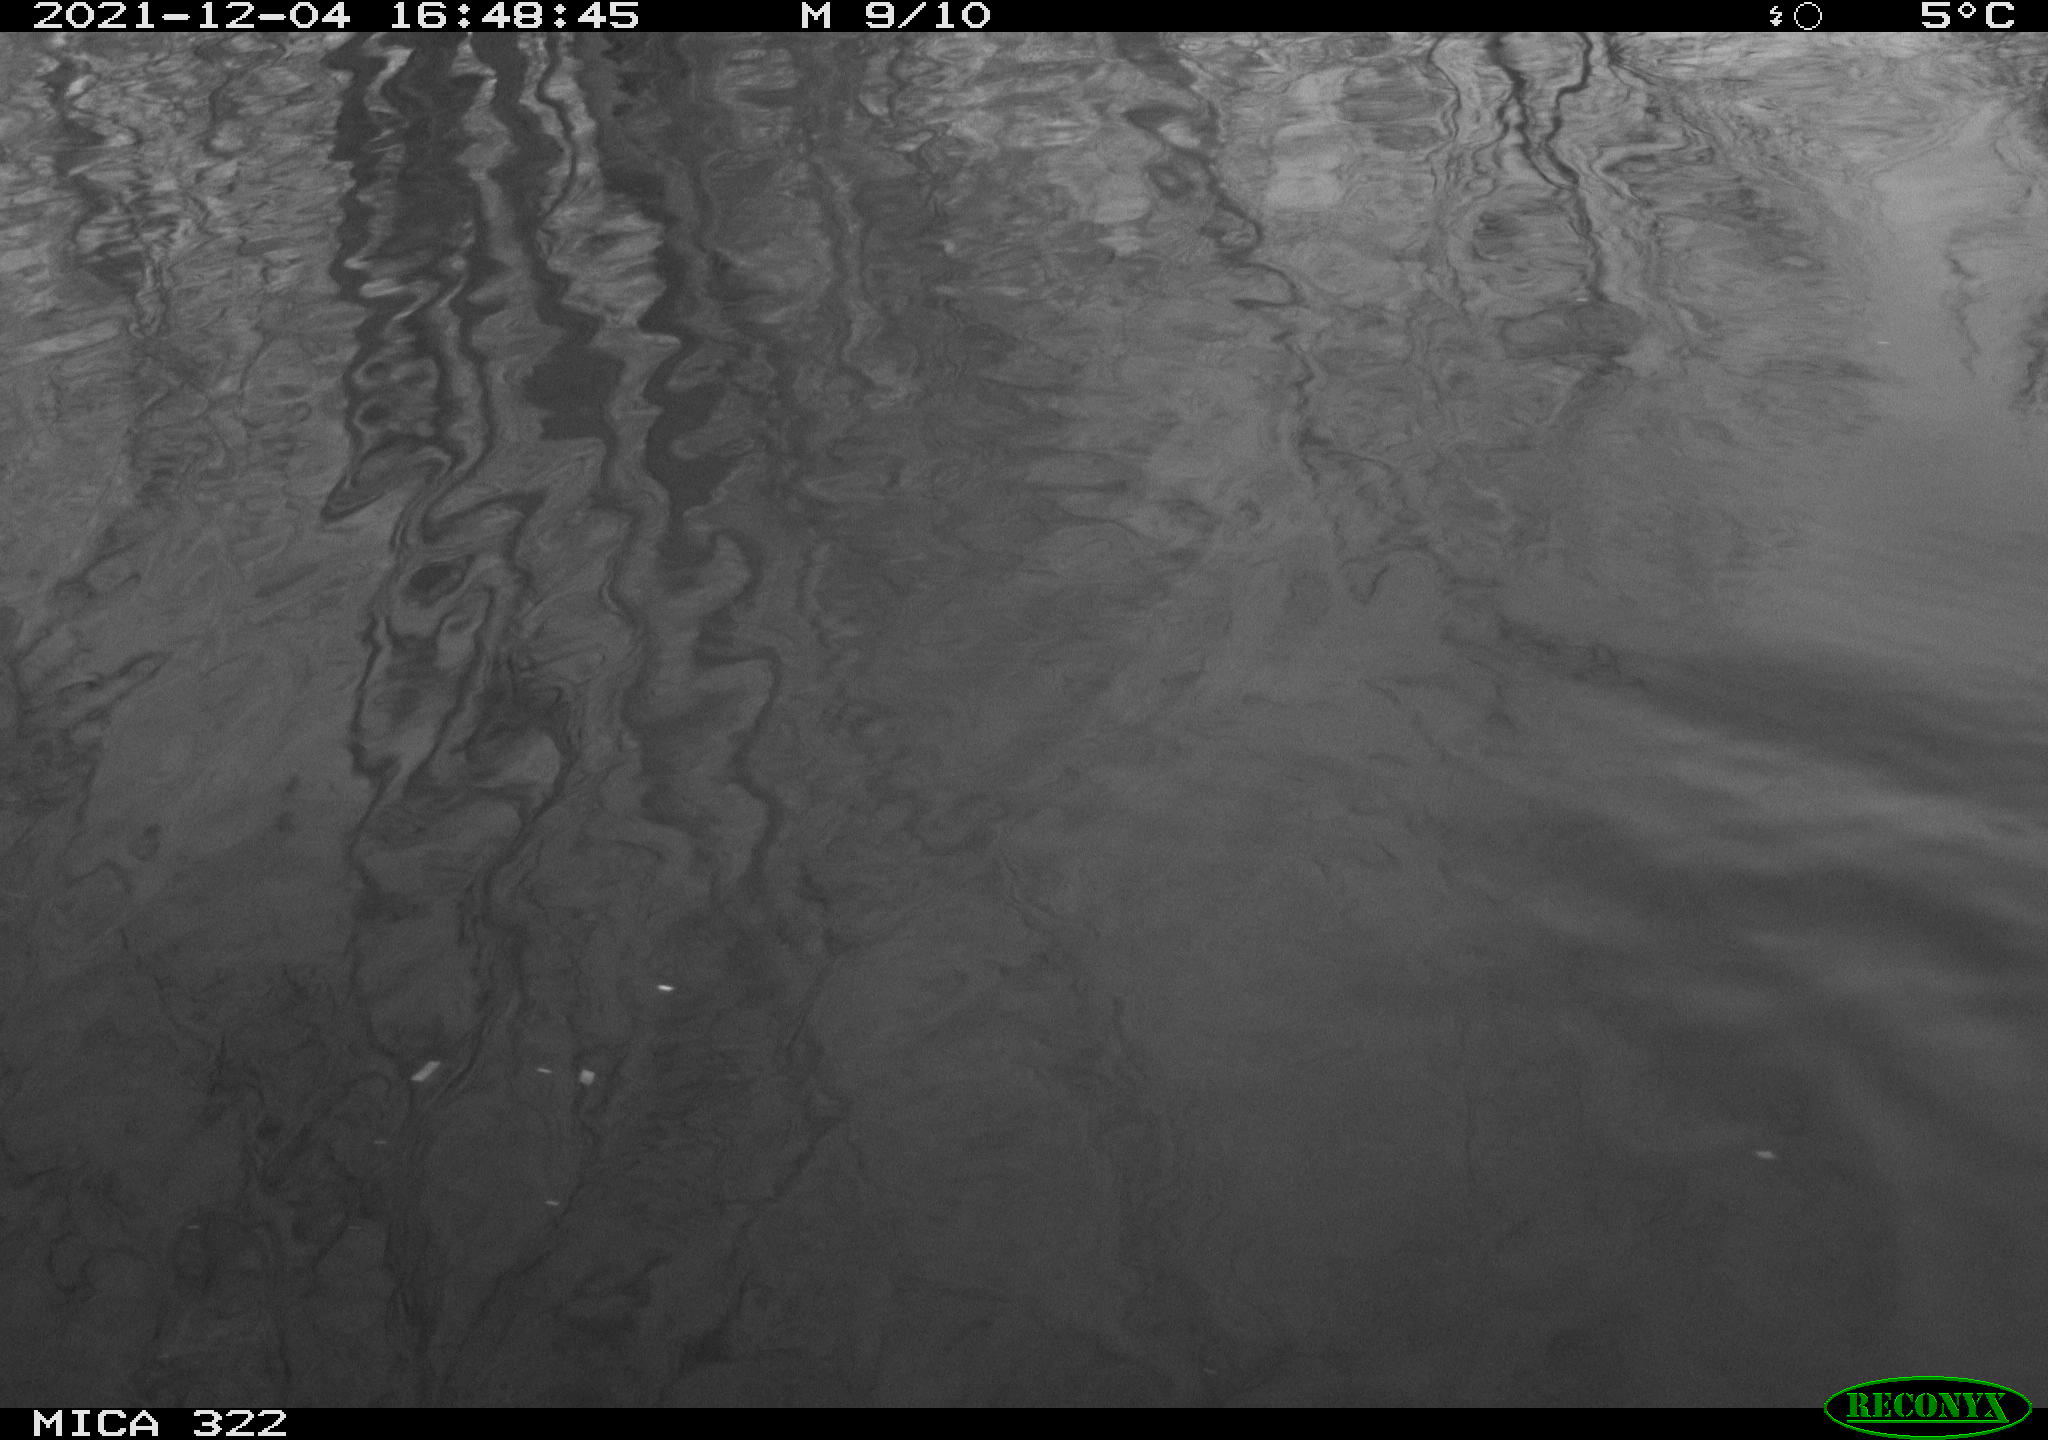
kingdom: Animalia
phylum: Chordata
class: Aves
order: Gruiformes
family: Rallidae
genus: Gallinula
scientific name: Gallinula chloropus
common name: Common moorhen
